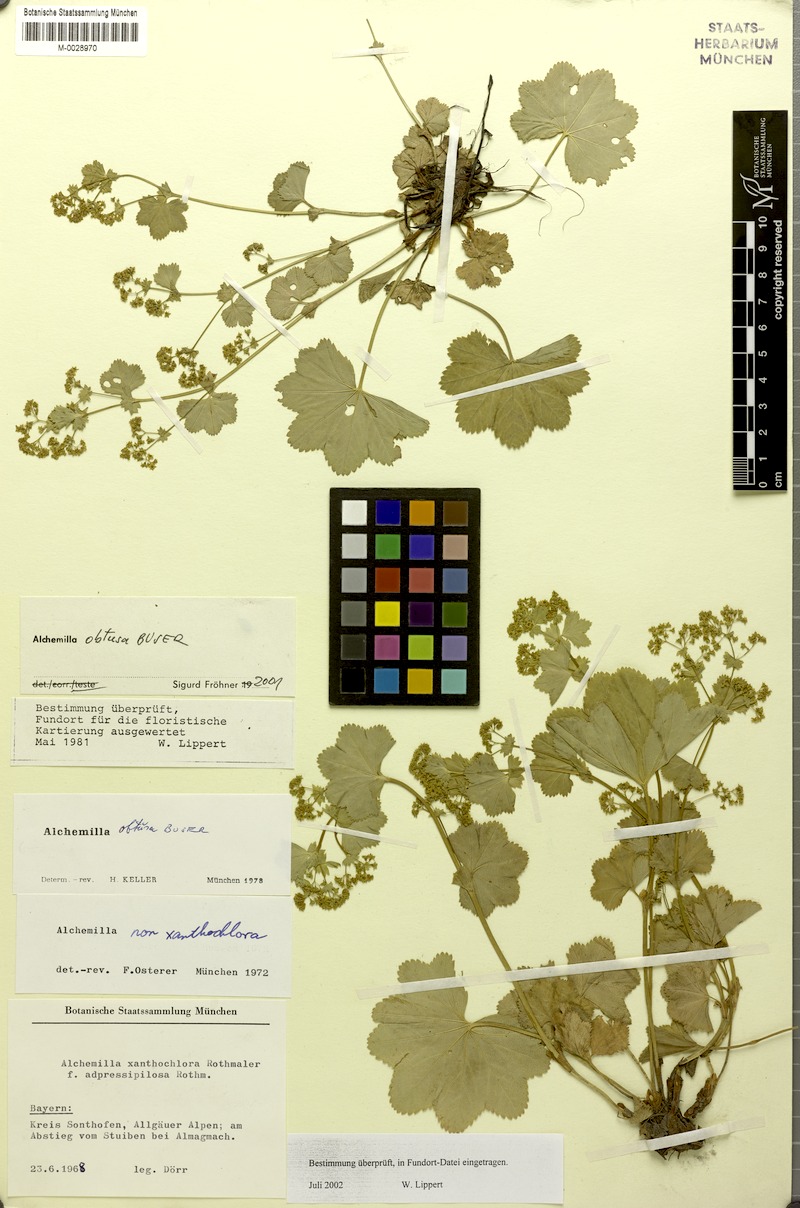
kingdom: Plantae
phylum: Tracheophyta
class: Magnoliopsida
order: Rosales
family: Rosaceae
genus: Alchemilla
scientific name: Alchemilla obtusa
